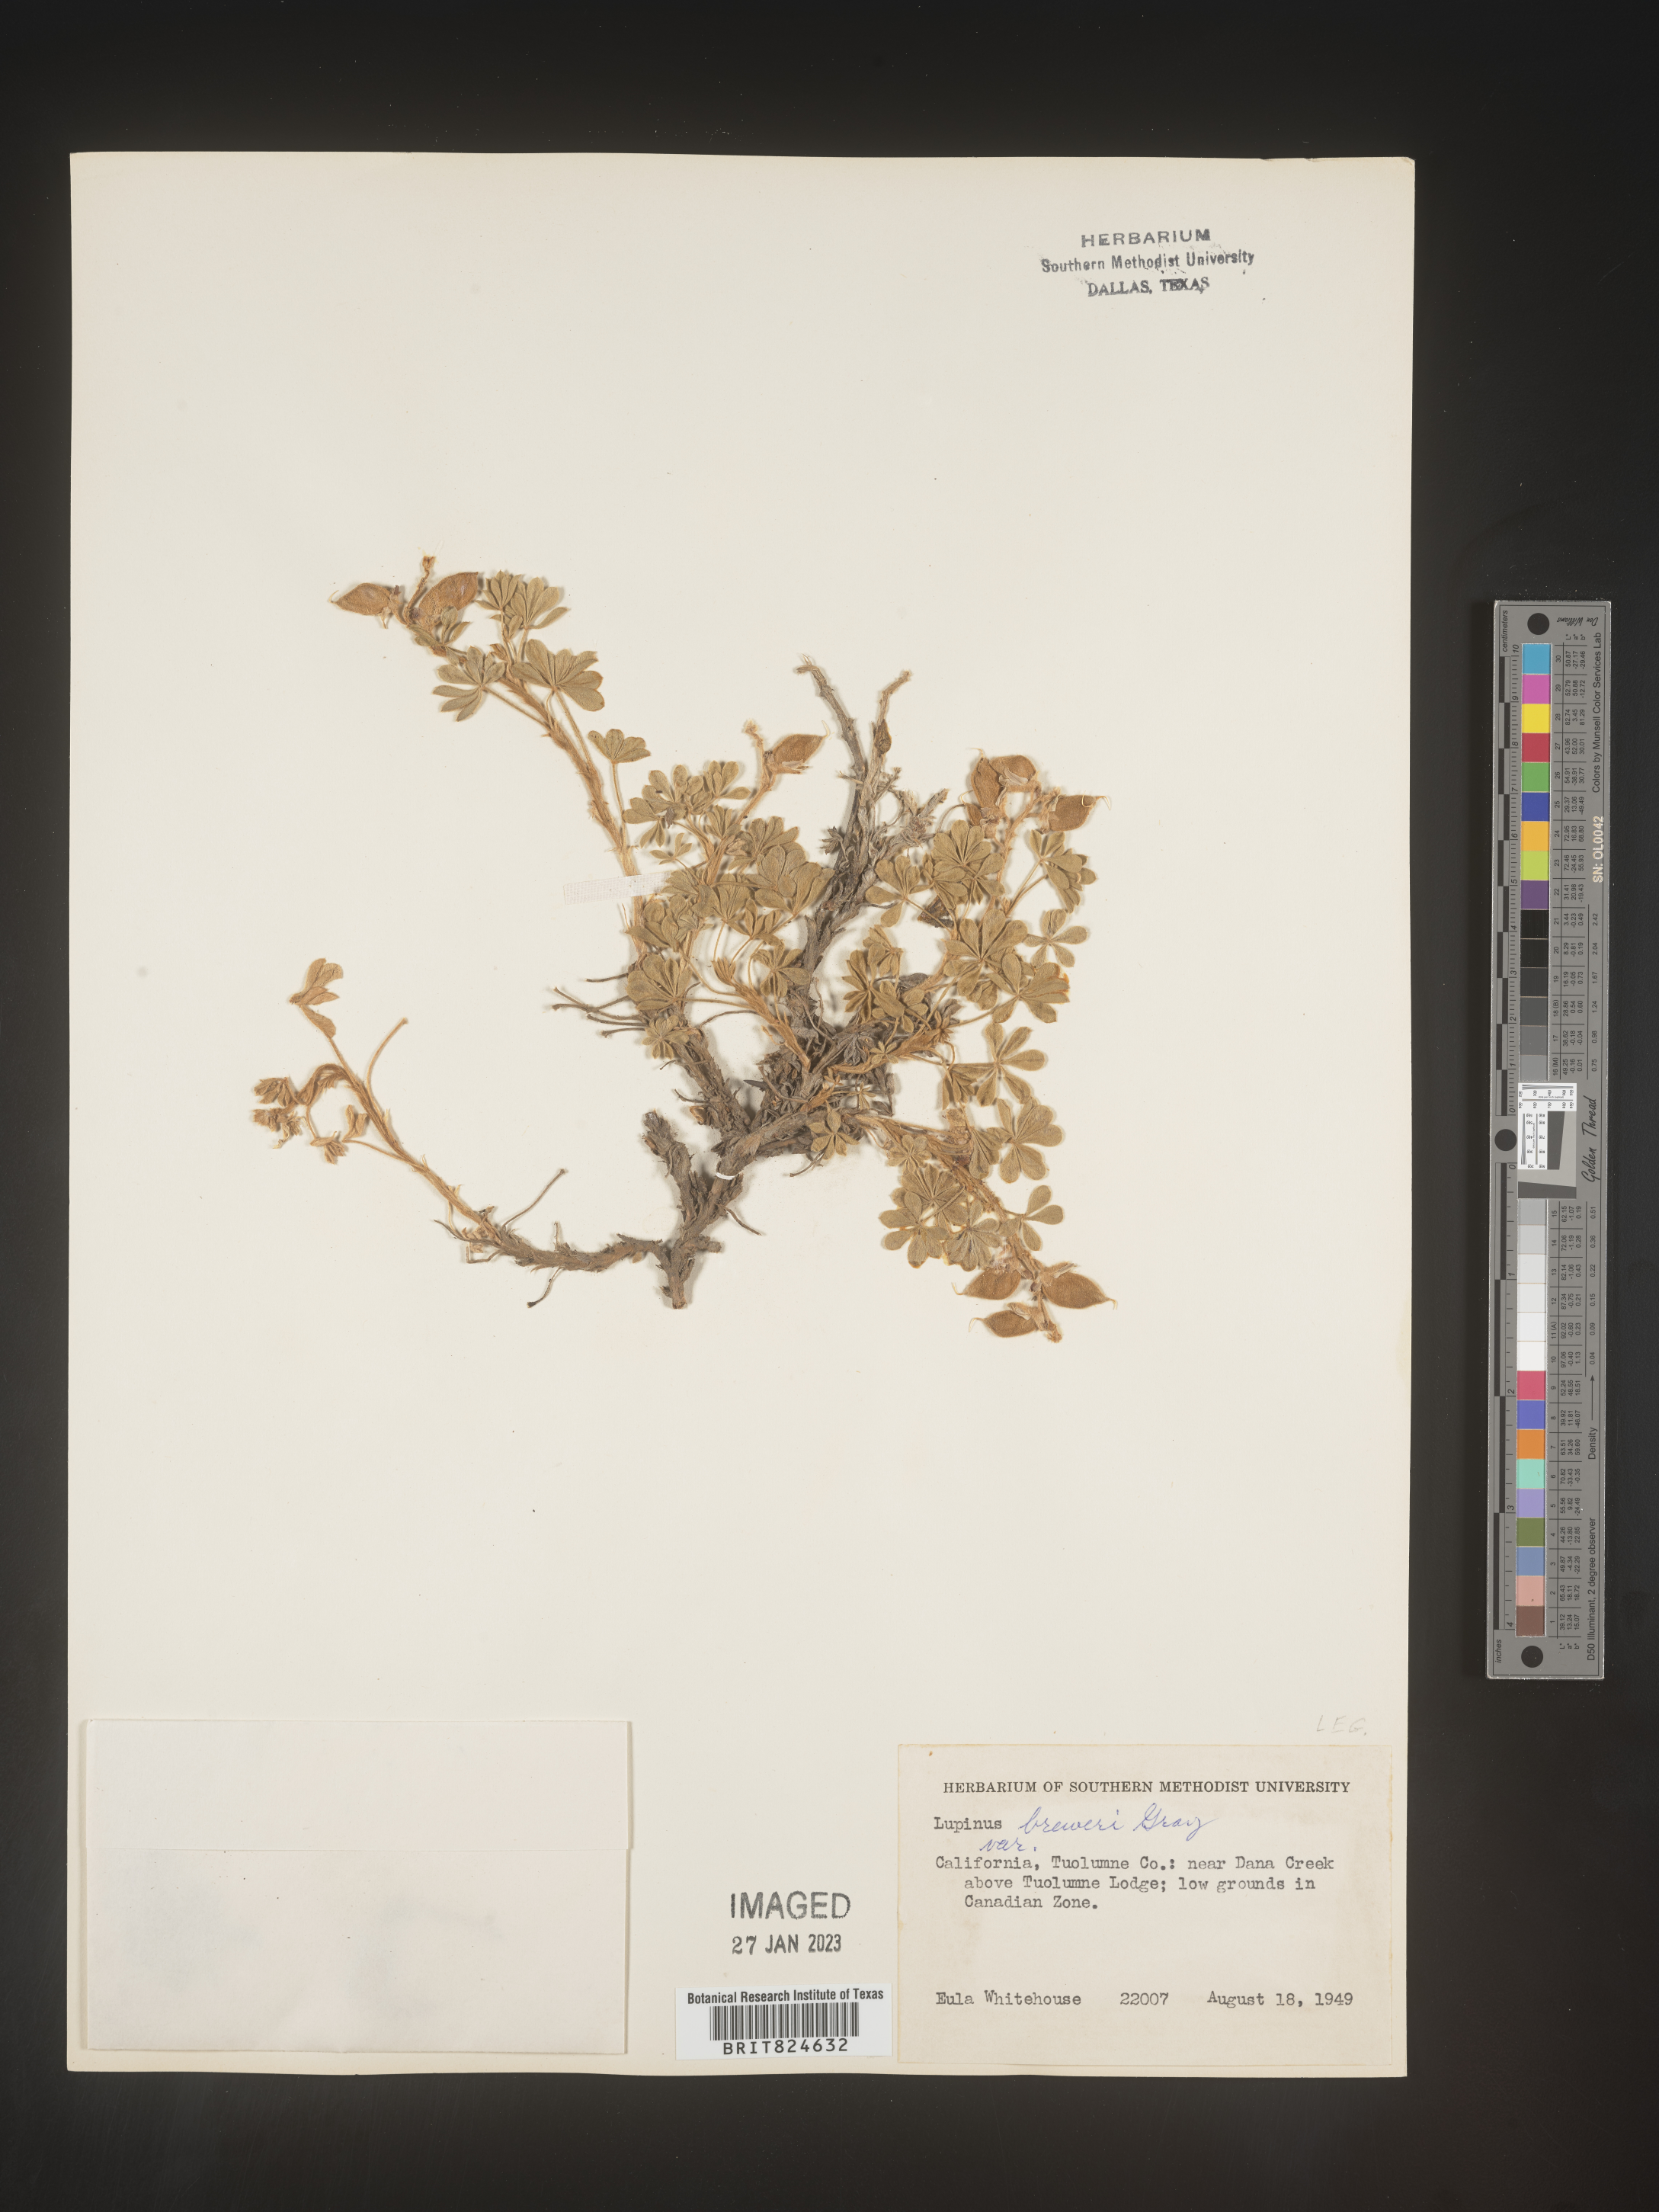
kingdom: Plantae
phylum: Tracheophyta
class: Magnoliopsida
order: Fabales
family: Fabaceae
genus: Lupinus
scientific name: Lupinus
